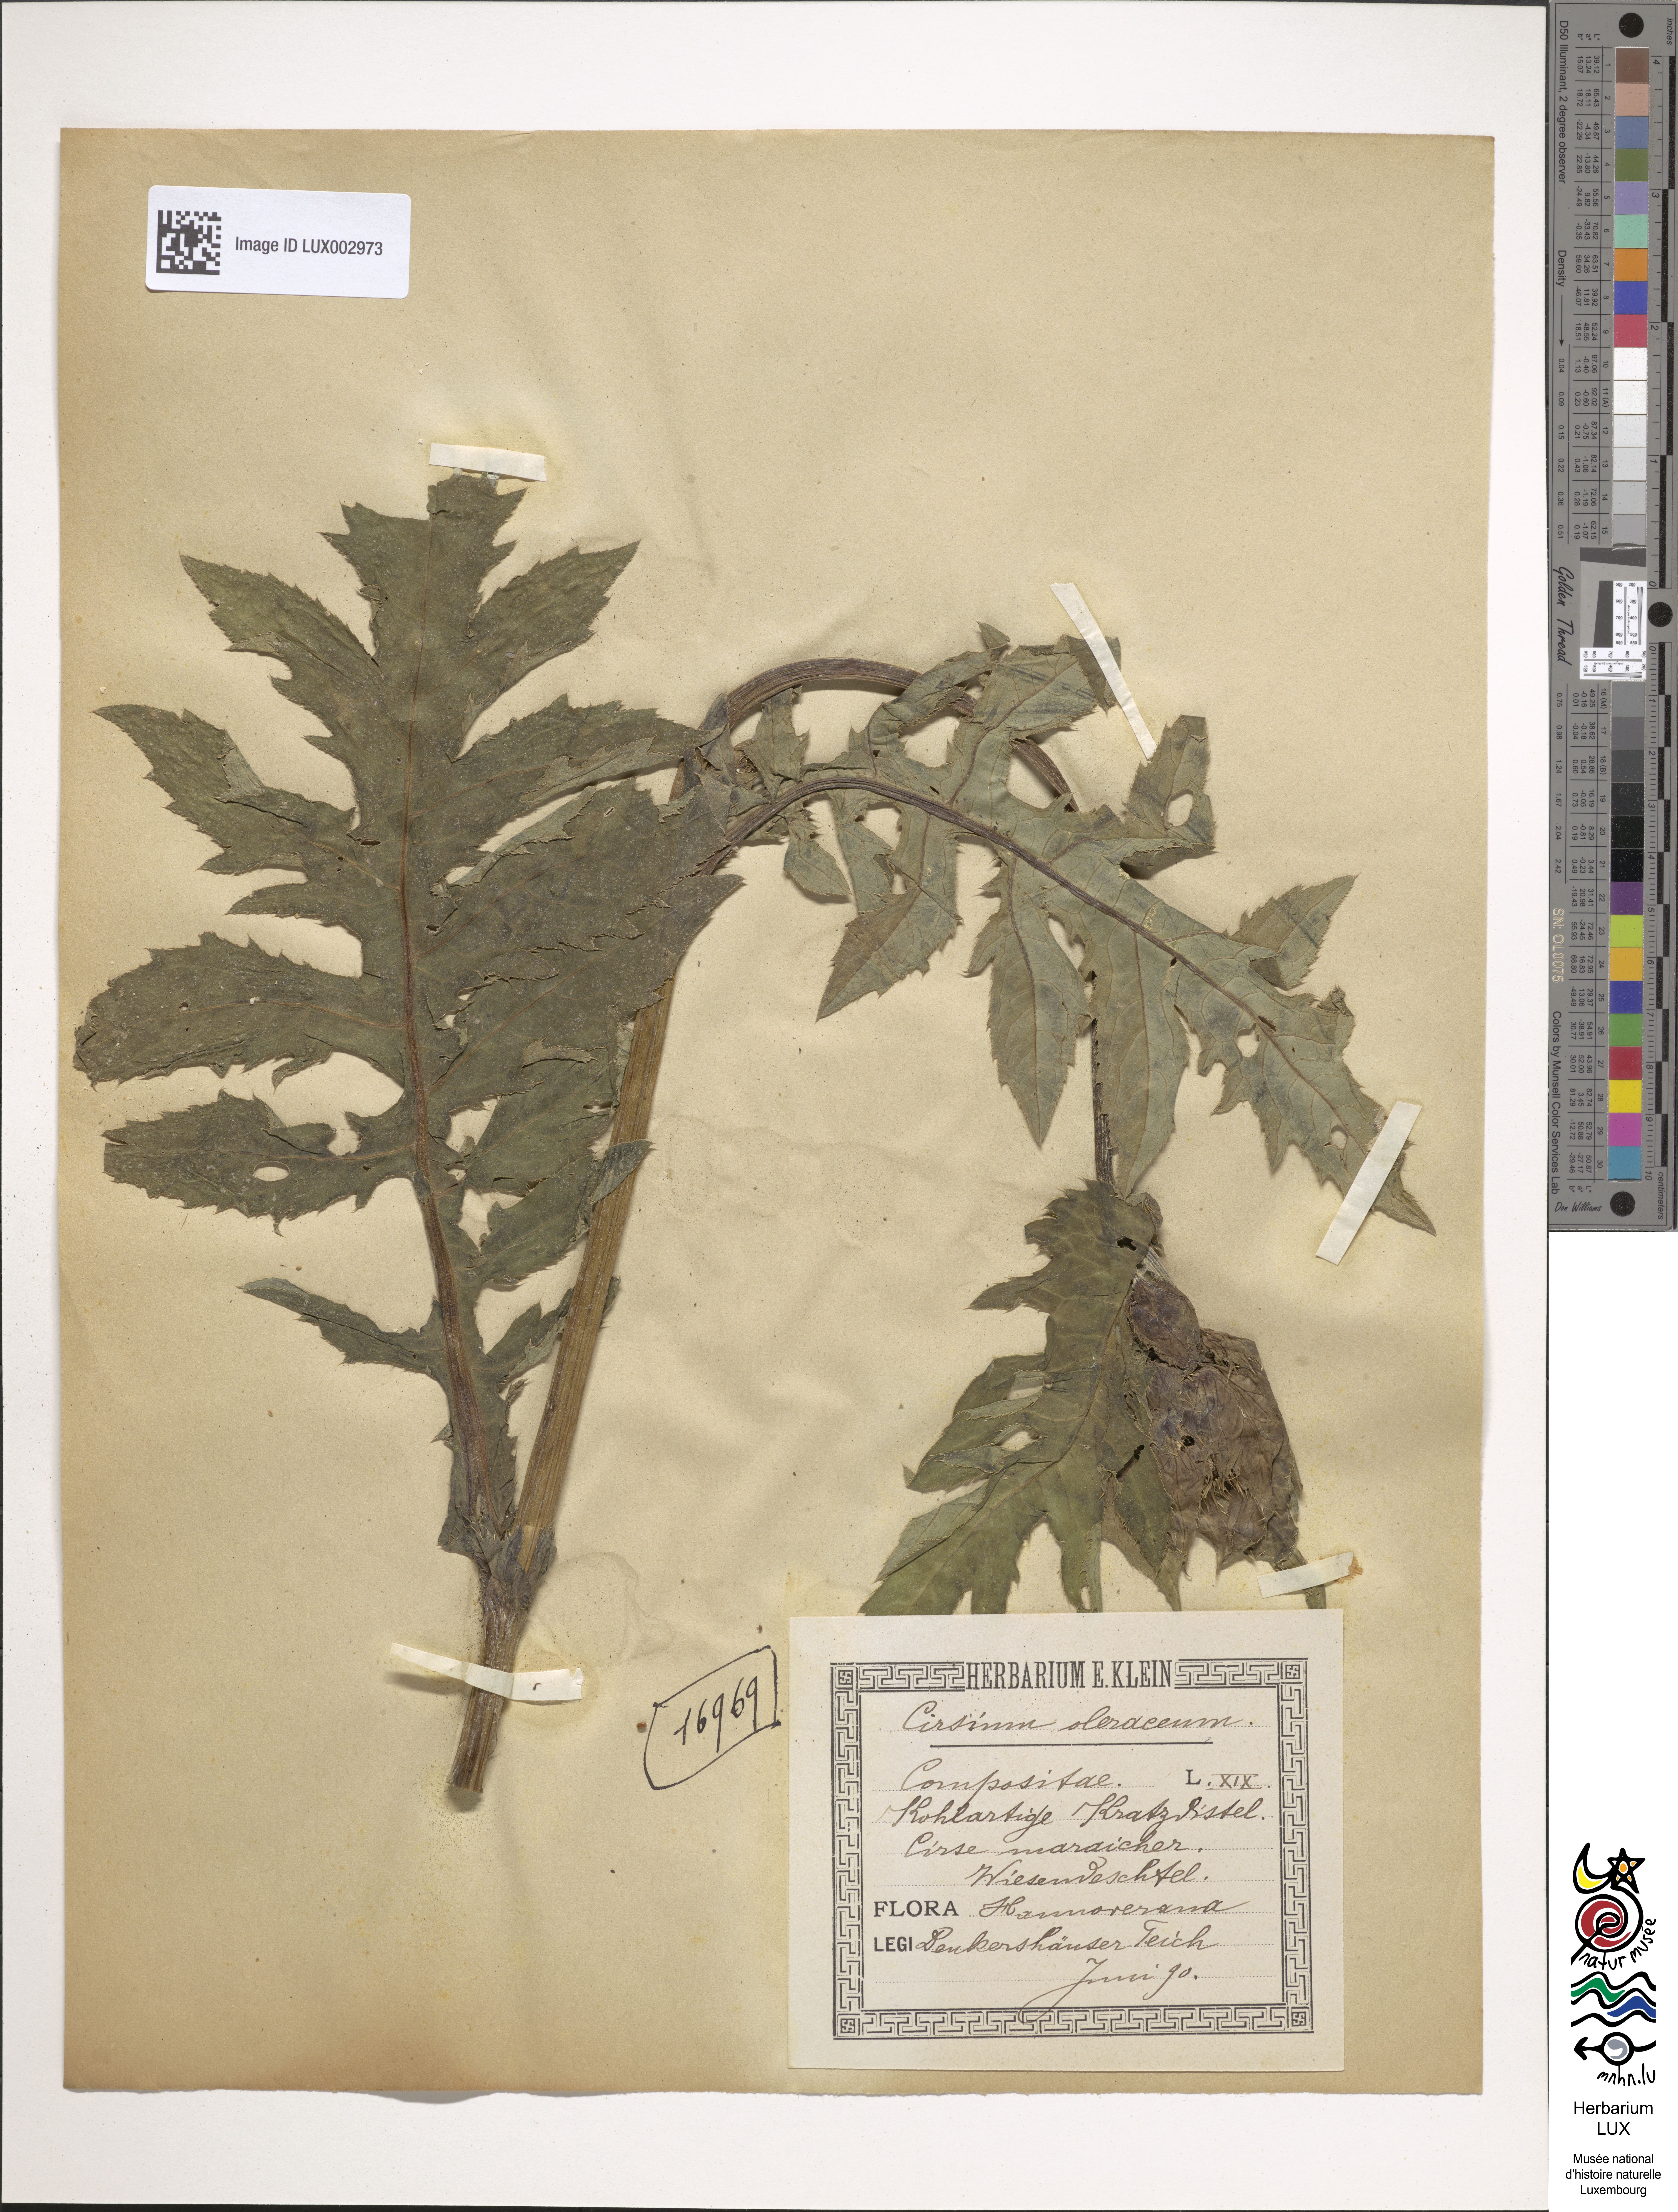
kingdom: Plantae
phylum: Tracheophyta
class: Magnoliopsida
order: Asterales
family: Asteraceae
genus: Cirsium
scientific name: Cirsium oleraceum
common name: Cabbage thistle
